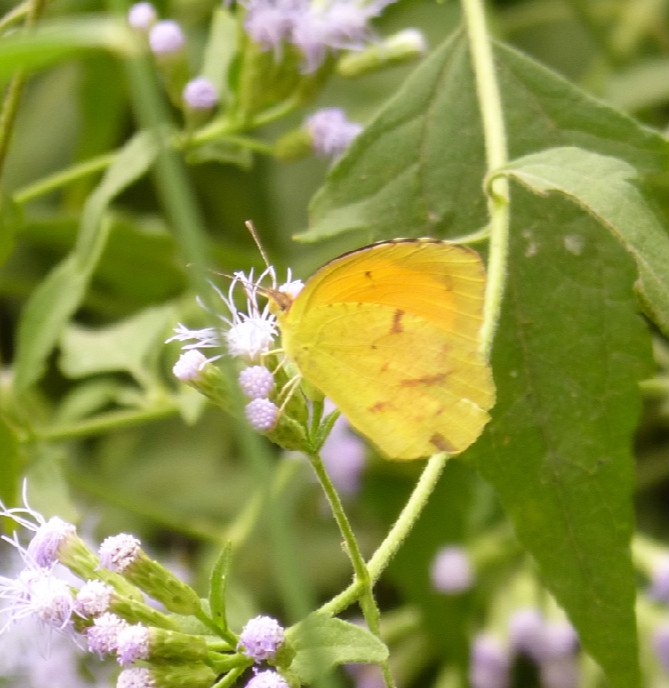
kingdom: Animalia
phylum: Arthropoda
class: Insecta
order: Lepidoptera
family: Pieridae
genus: Abaeis
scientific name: Abaeis nicippe
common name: Sleepy Orange
